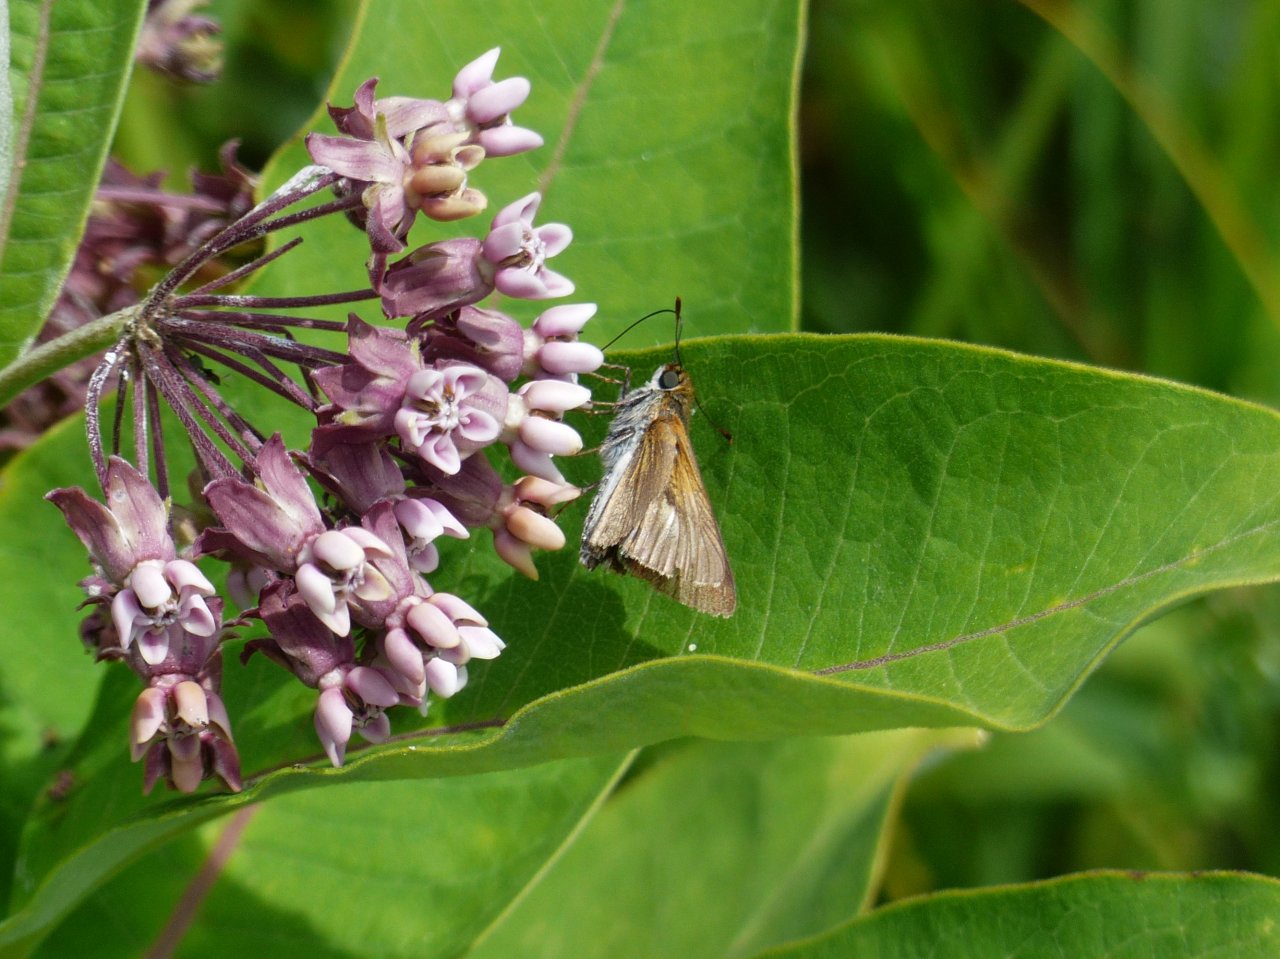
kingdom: Animalia
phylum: Arthropoda
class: Insecta
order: Lepidoptera
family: Hesperiidae
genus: Euphyes
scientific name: Euphyes bimacula
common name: Two-spotted Skipper
